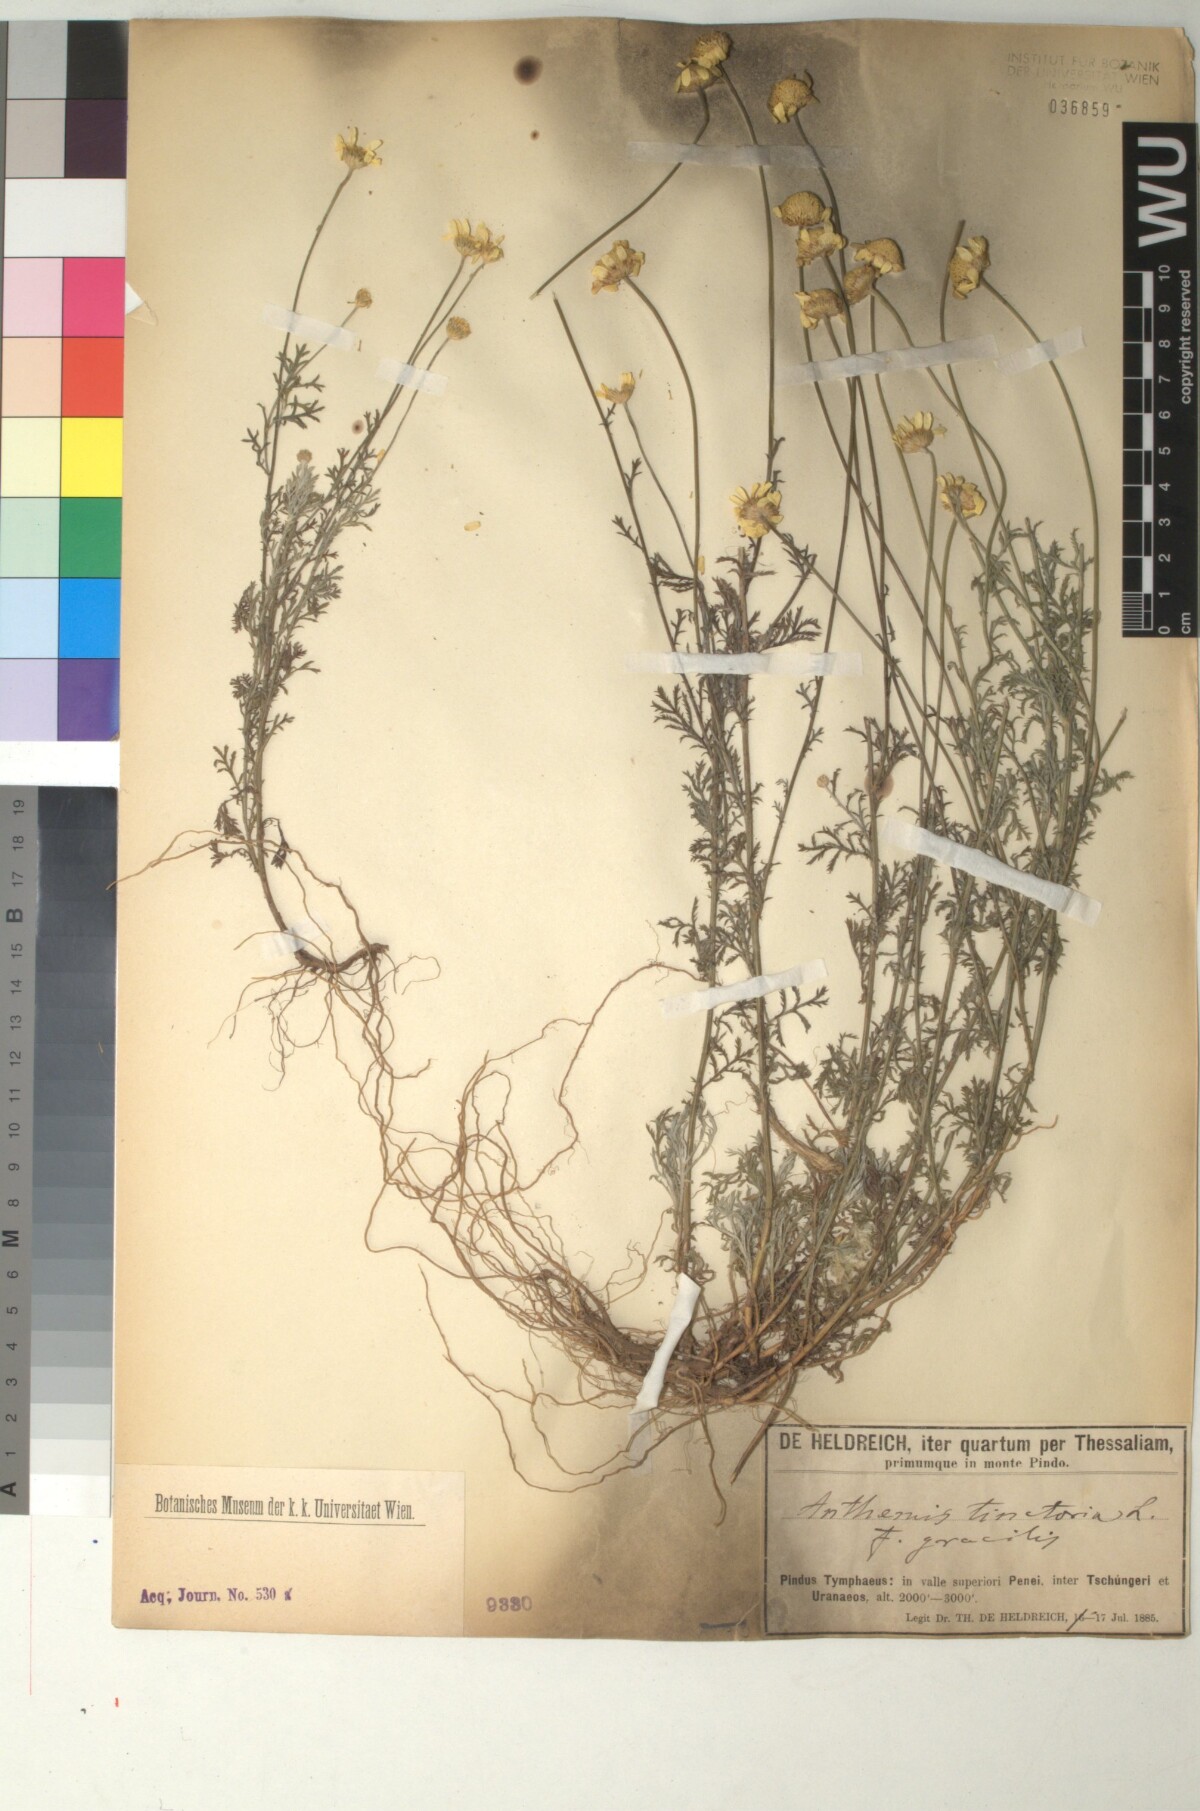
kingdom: Plantae
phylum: Tracheophyta
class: Magnoliopsida
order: Asterales
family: Asteraceae
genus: Cota
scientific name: Cota tinctoria
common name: Golden chamomile
